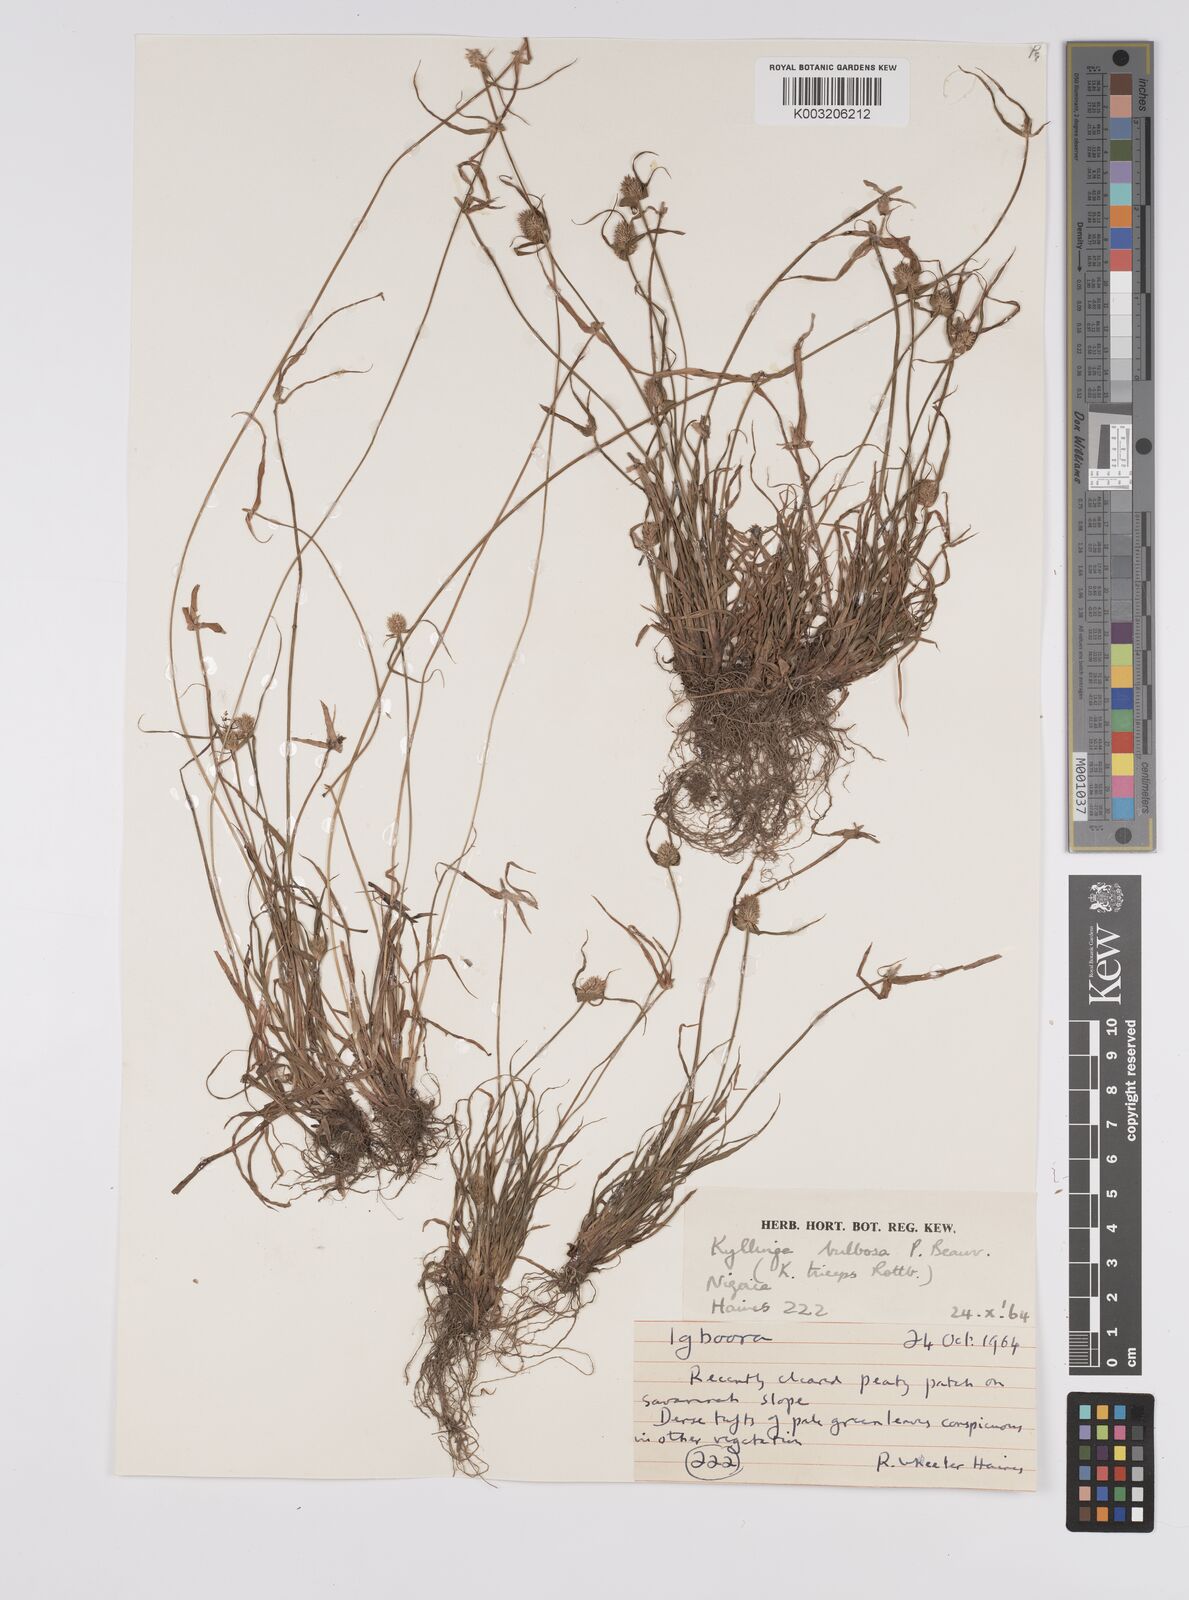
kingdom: Plantae
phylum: Tracheophyta
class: Liliopsida
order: Poales
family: Cyperaceae
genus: Cyperus
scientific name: Cyperus
